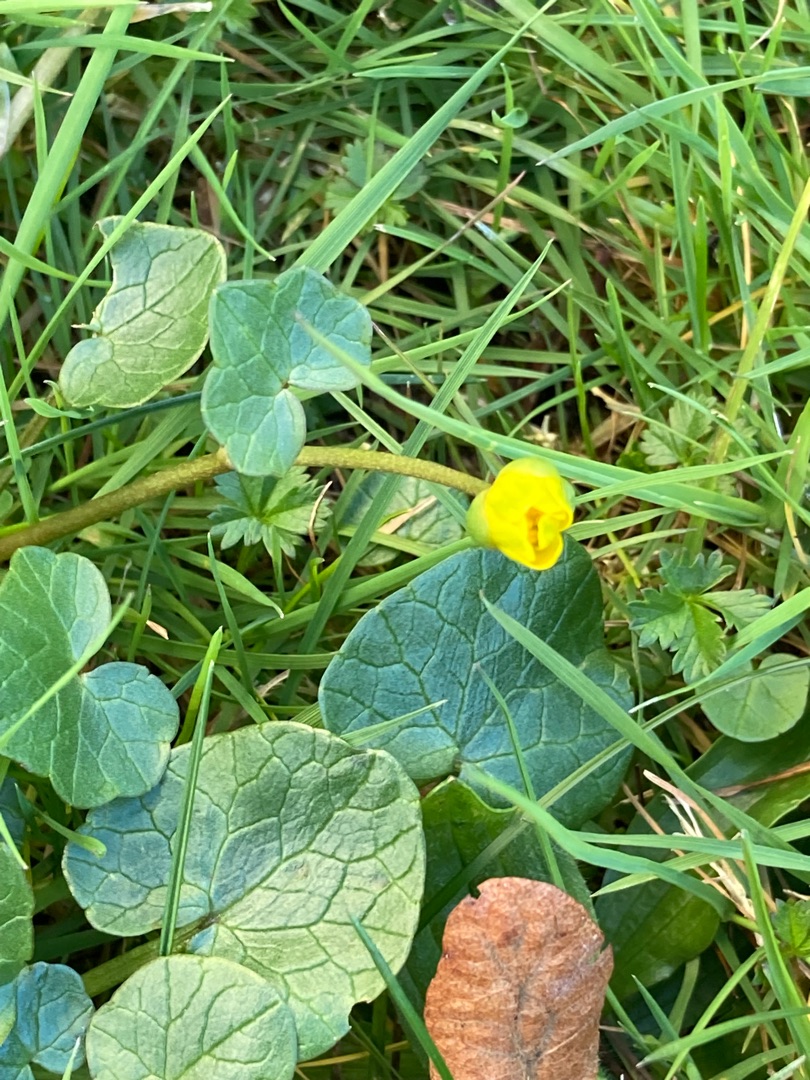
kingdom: Plantae
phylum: Tracheophyta
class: Magnoliopsida
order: Ranunculales
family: Ranunculaceae
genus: Ficaria
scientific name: Ficaria verna
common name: Vorterod
